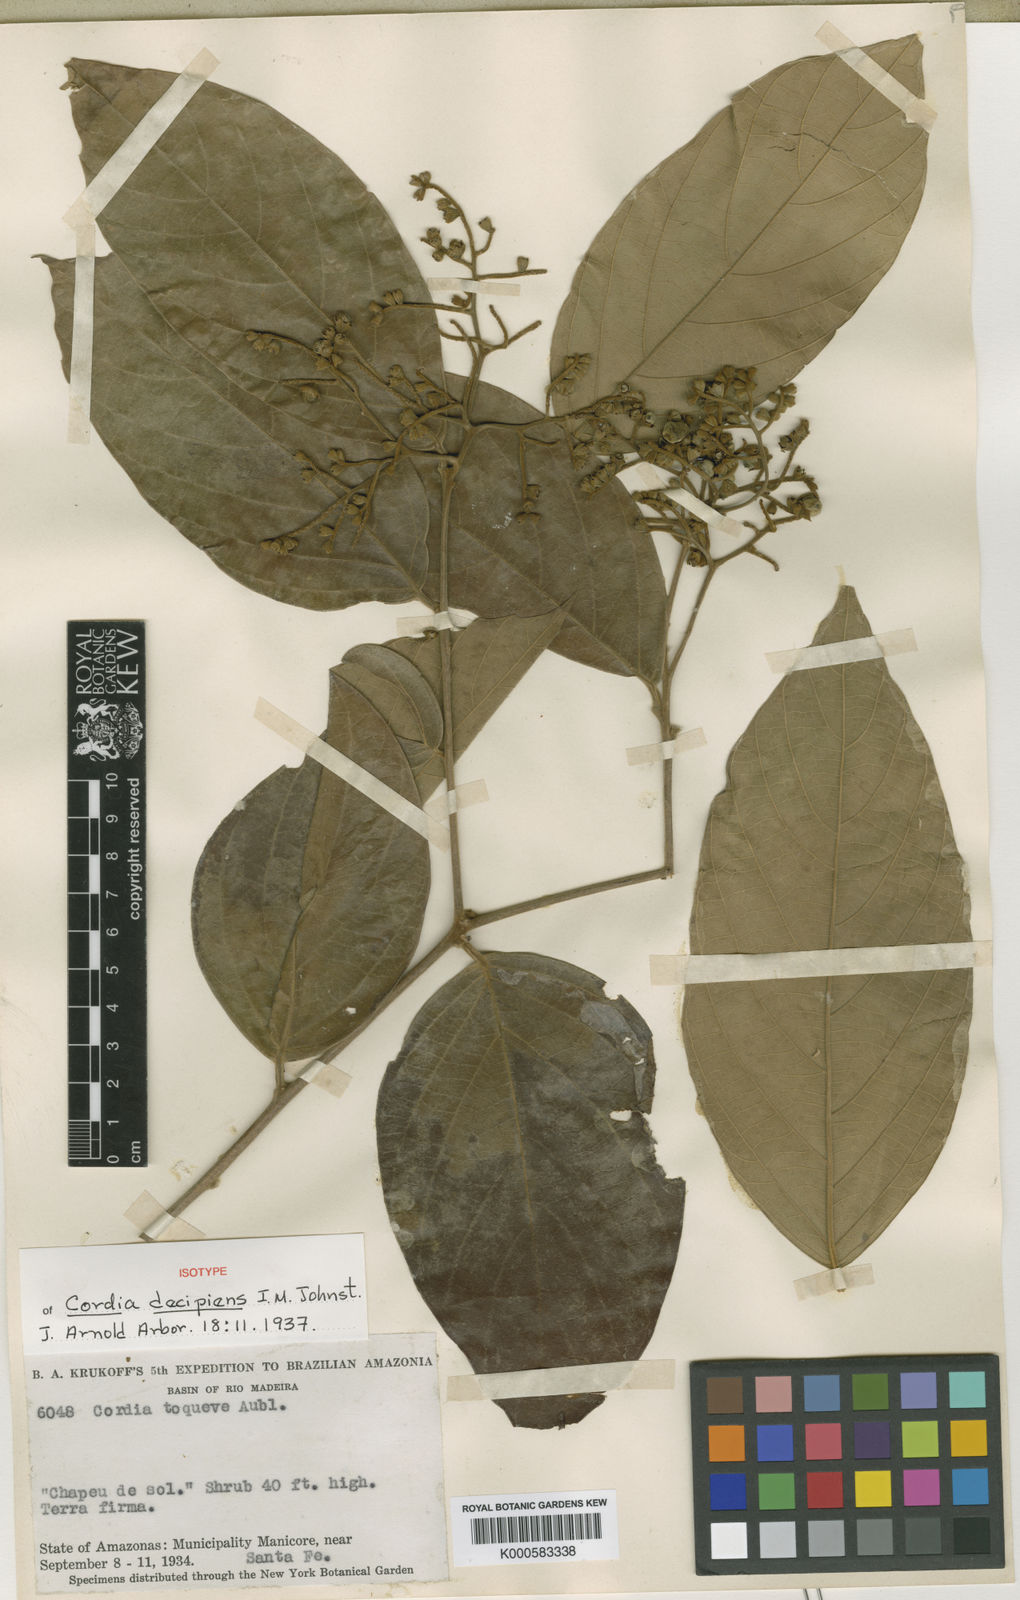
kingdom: Plantae
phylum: Tracheophyta
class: Magnoliopsida
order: Boraginales
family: Cordiaceae
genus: Cordia
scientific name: Cordia decipiens
